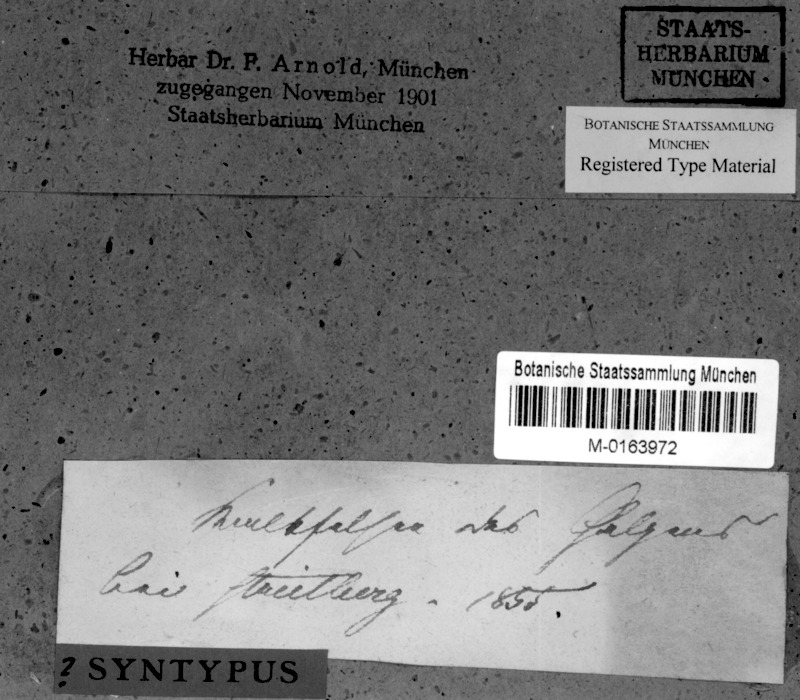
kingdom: Fungi
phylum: Ascomycota
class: Eurotiomycetes
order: Verrucariales
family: Verrucariaceae
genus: Verrucaria
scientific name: Verrucaria murina
